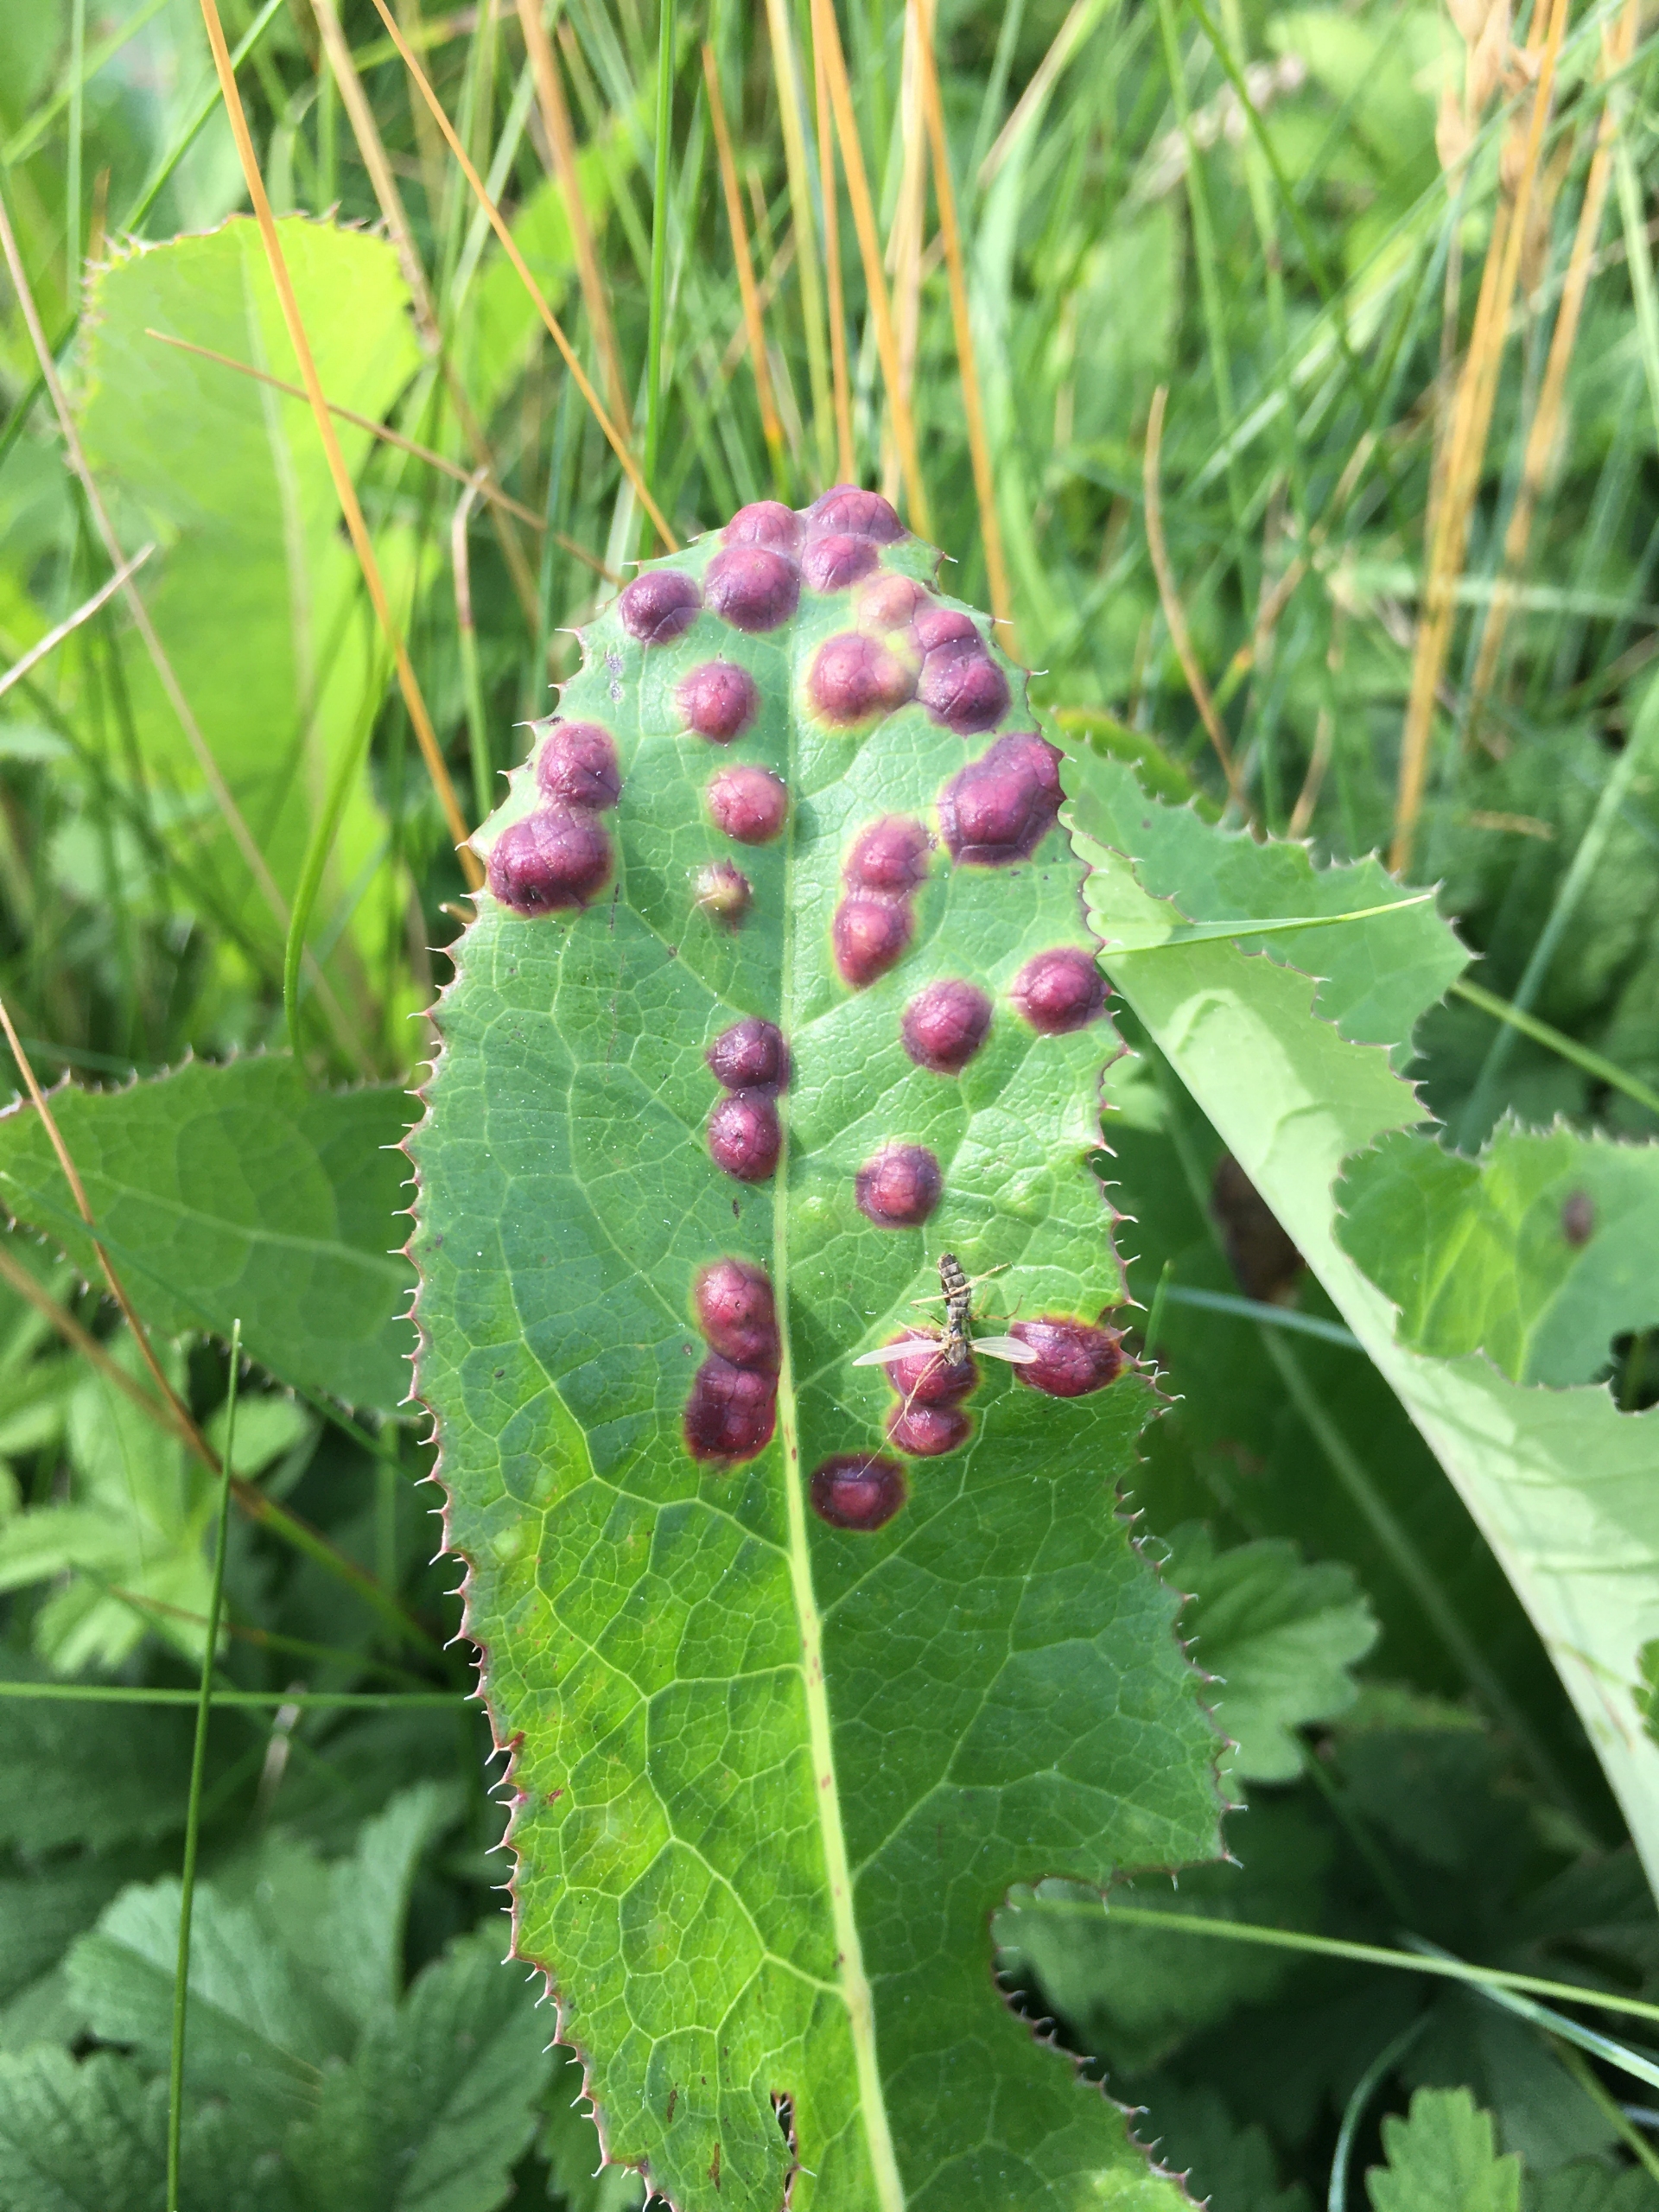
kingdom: Animalia
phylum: Arthropoda
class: Insecta
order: Diptera
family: Cecidomyiidae
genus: Cystiphora
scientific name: Cystiphora sonchi
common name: Svineblæregalmyg
